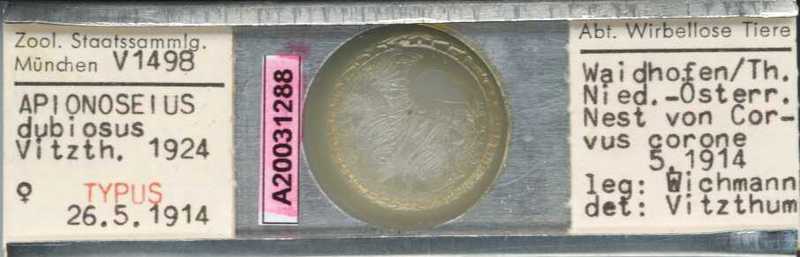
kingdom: Animalia
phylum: Arthropoda
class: Arachnida
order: Mesostigmata
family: Dithinozerconidae
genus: Uroseius
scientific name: Uroseius
